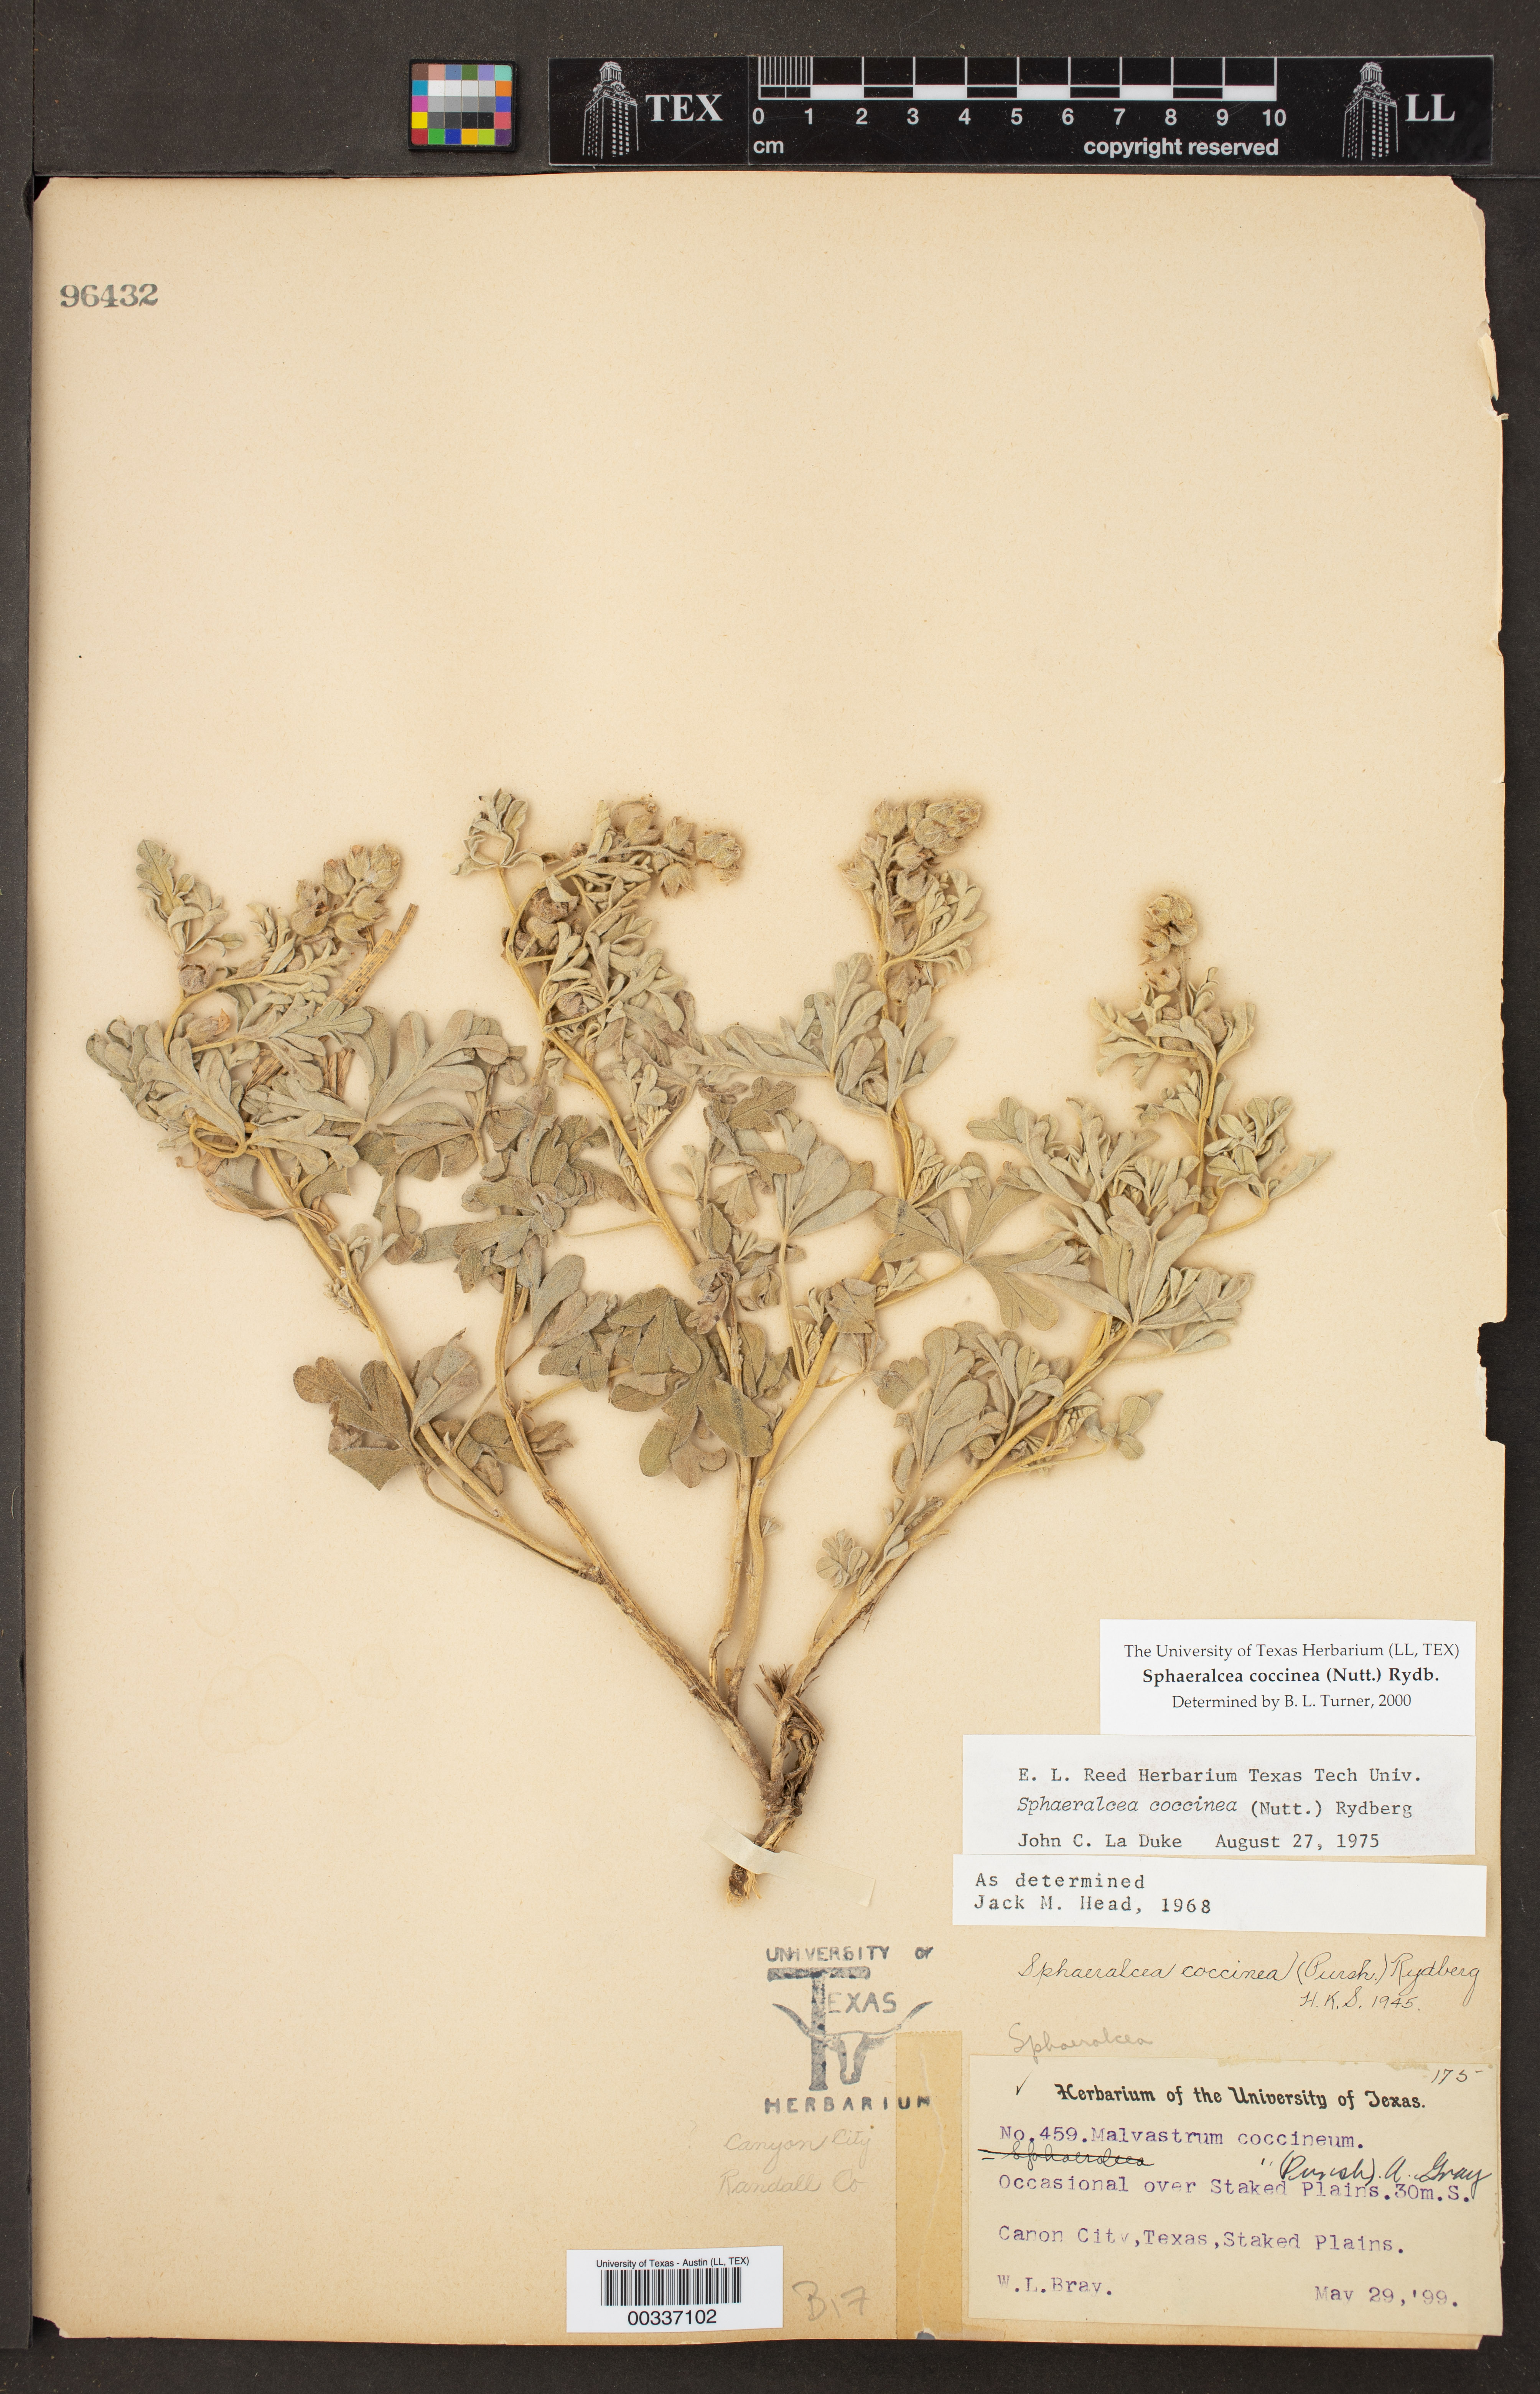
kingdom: Plantae
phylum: Tracheophyta
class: Magnoliopsida
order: Malvales
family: Malvaceae
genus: Sphaeralcea
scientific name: Sphaeralcea coccinea
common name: Moss-rose
